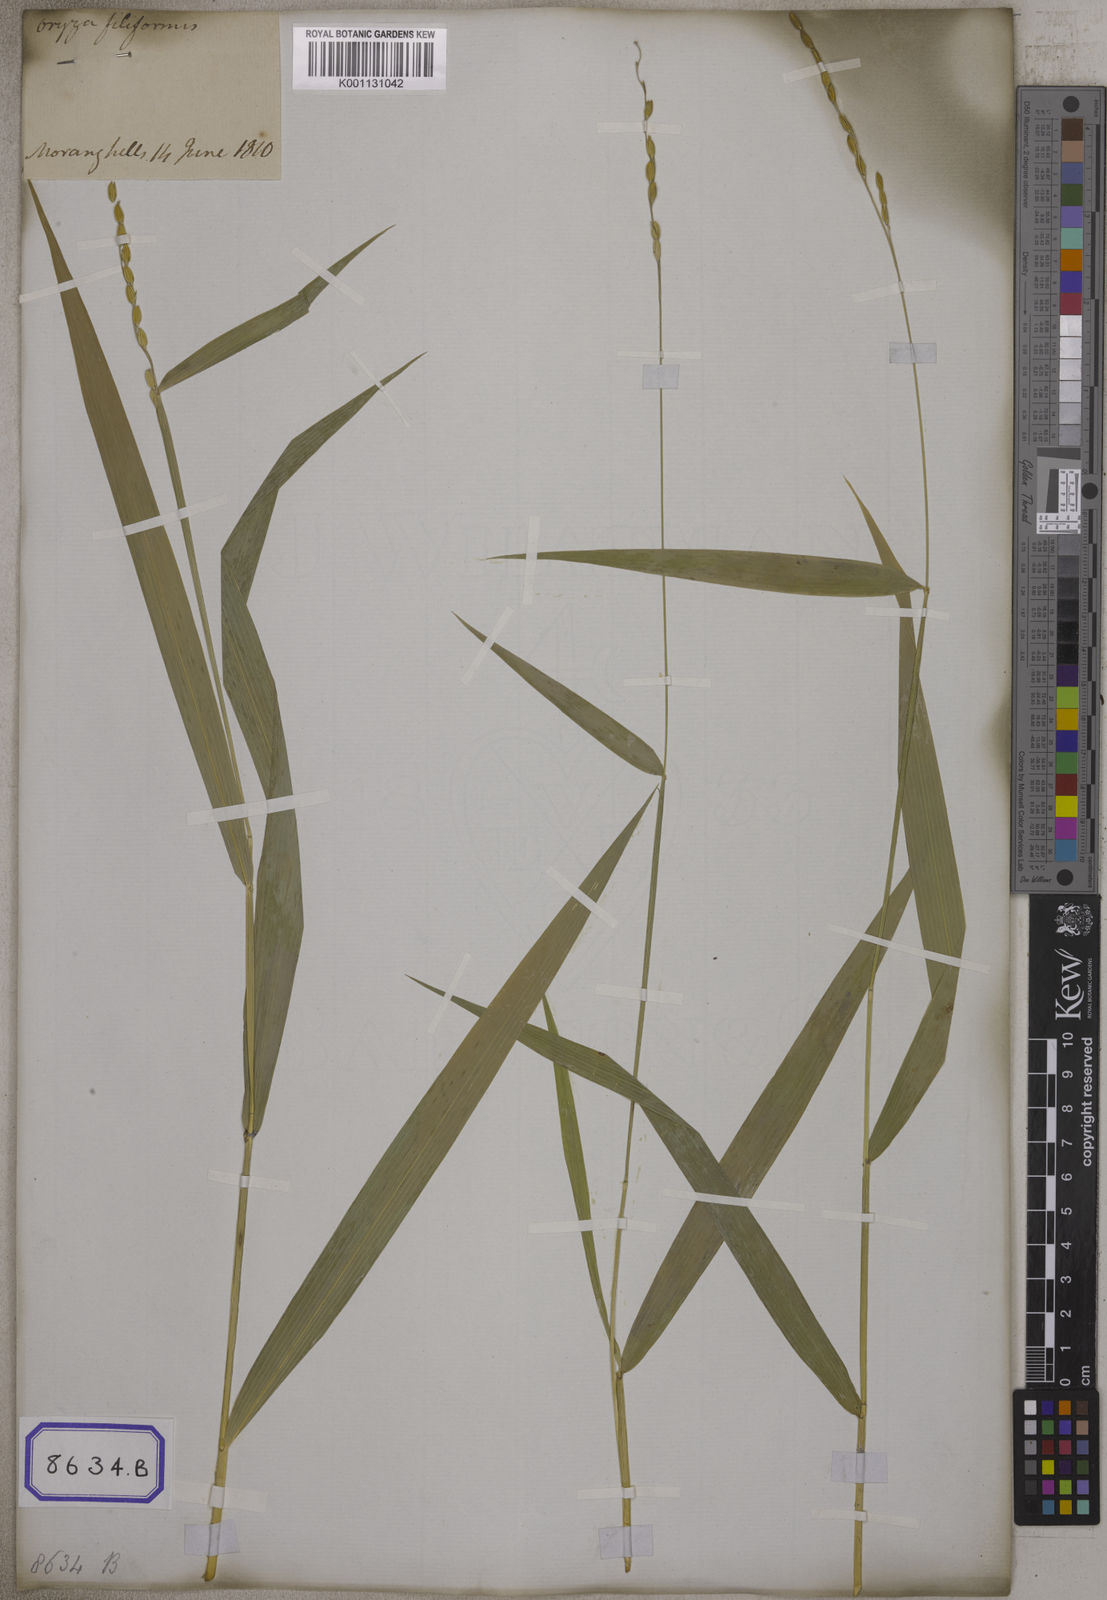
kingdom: Plantae
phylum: Tracheophyta
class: Liliopsida
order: Poales
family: Poaceae
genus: Oryza
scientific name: Oryza
